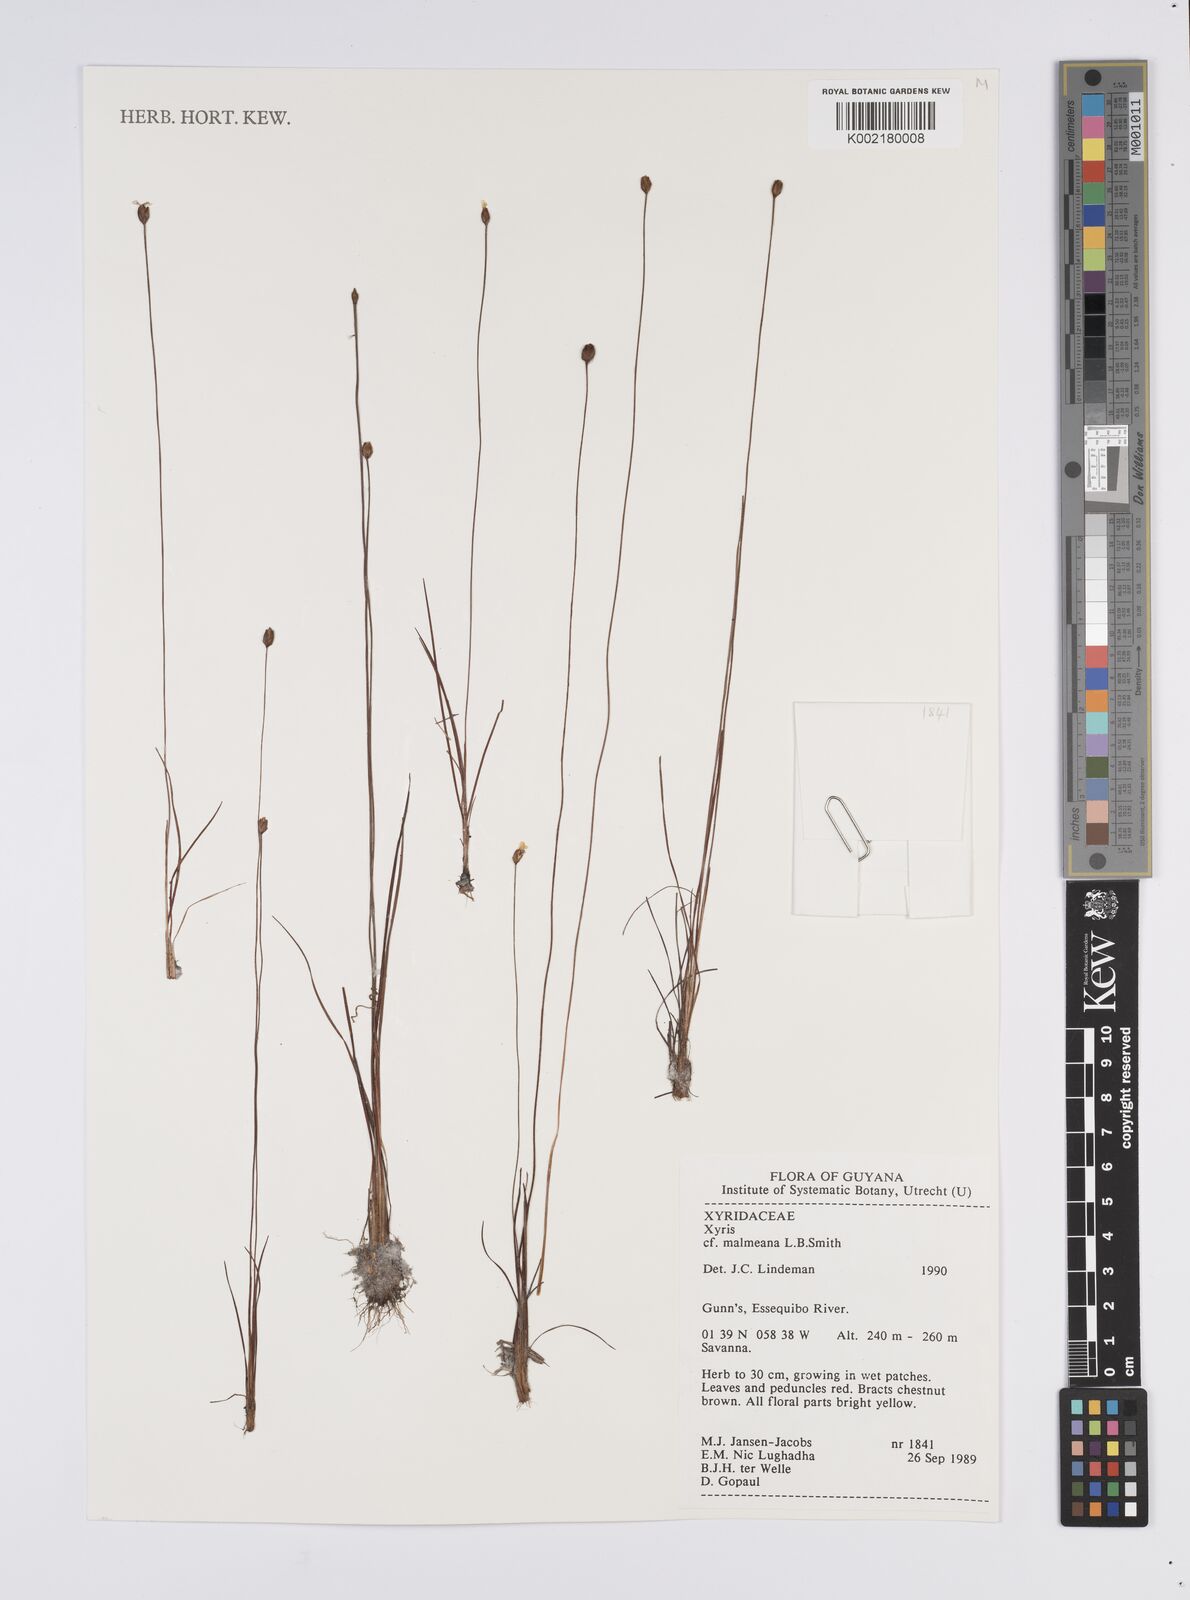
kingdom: Plantae
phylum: Tracheophyta
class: Liliopsida
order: Poales
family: Xyridaceae
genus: Xyris
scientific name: Xyris malmeana
